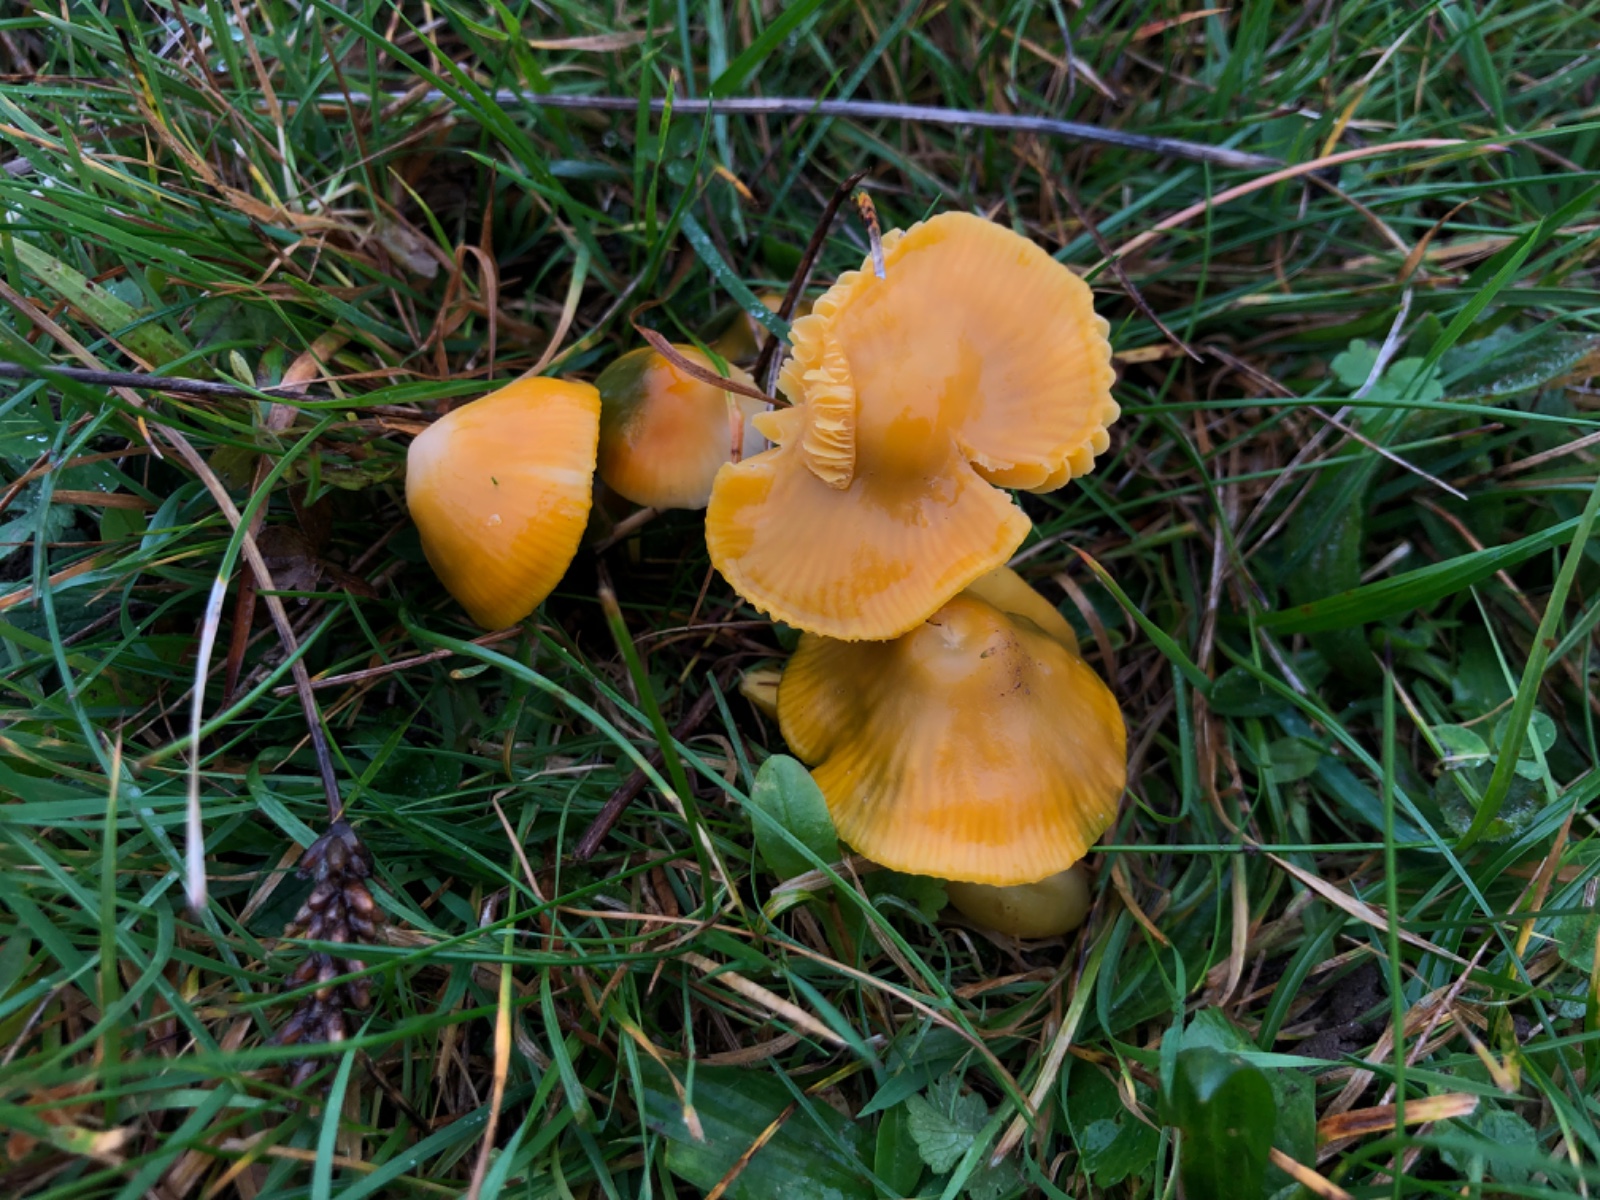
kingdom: Fungi
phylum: Basidiomycota
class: Agaricomycetes
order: Agaricales
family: Hygrophoraceae
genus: Gliophorus
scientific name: Gliophorus psittacinus
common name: papegøje-vokshat
